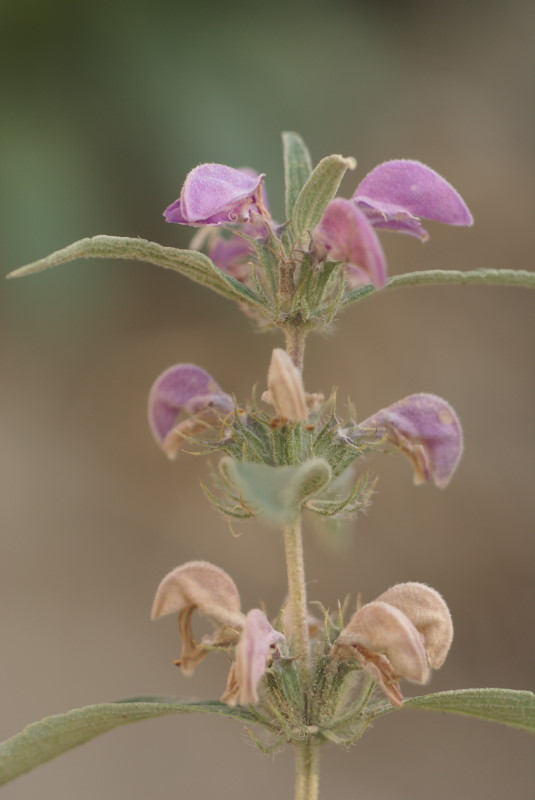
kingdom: Plantae
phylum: Tracheophyta
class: Magnoliopsida
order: Lamiales
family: Lamiaceae
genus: Phlomis
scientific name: Phlomis herba-venti
